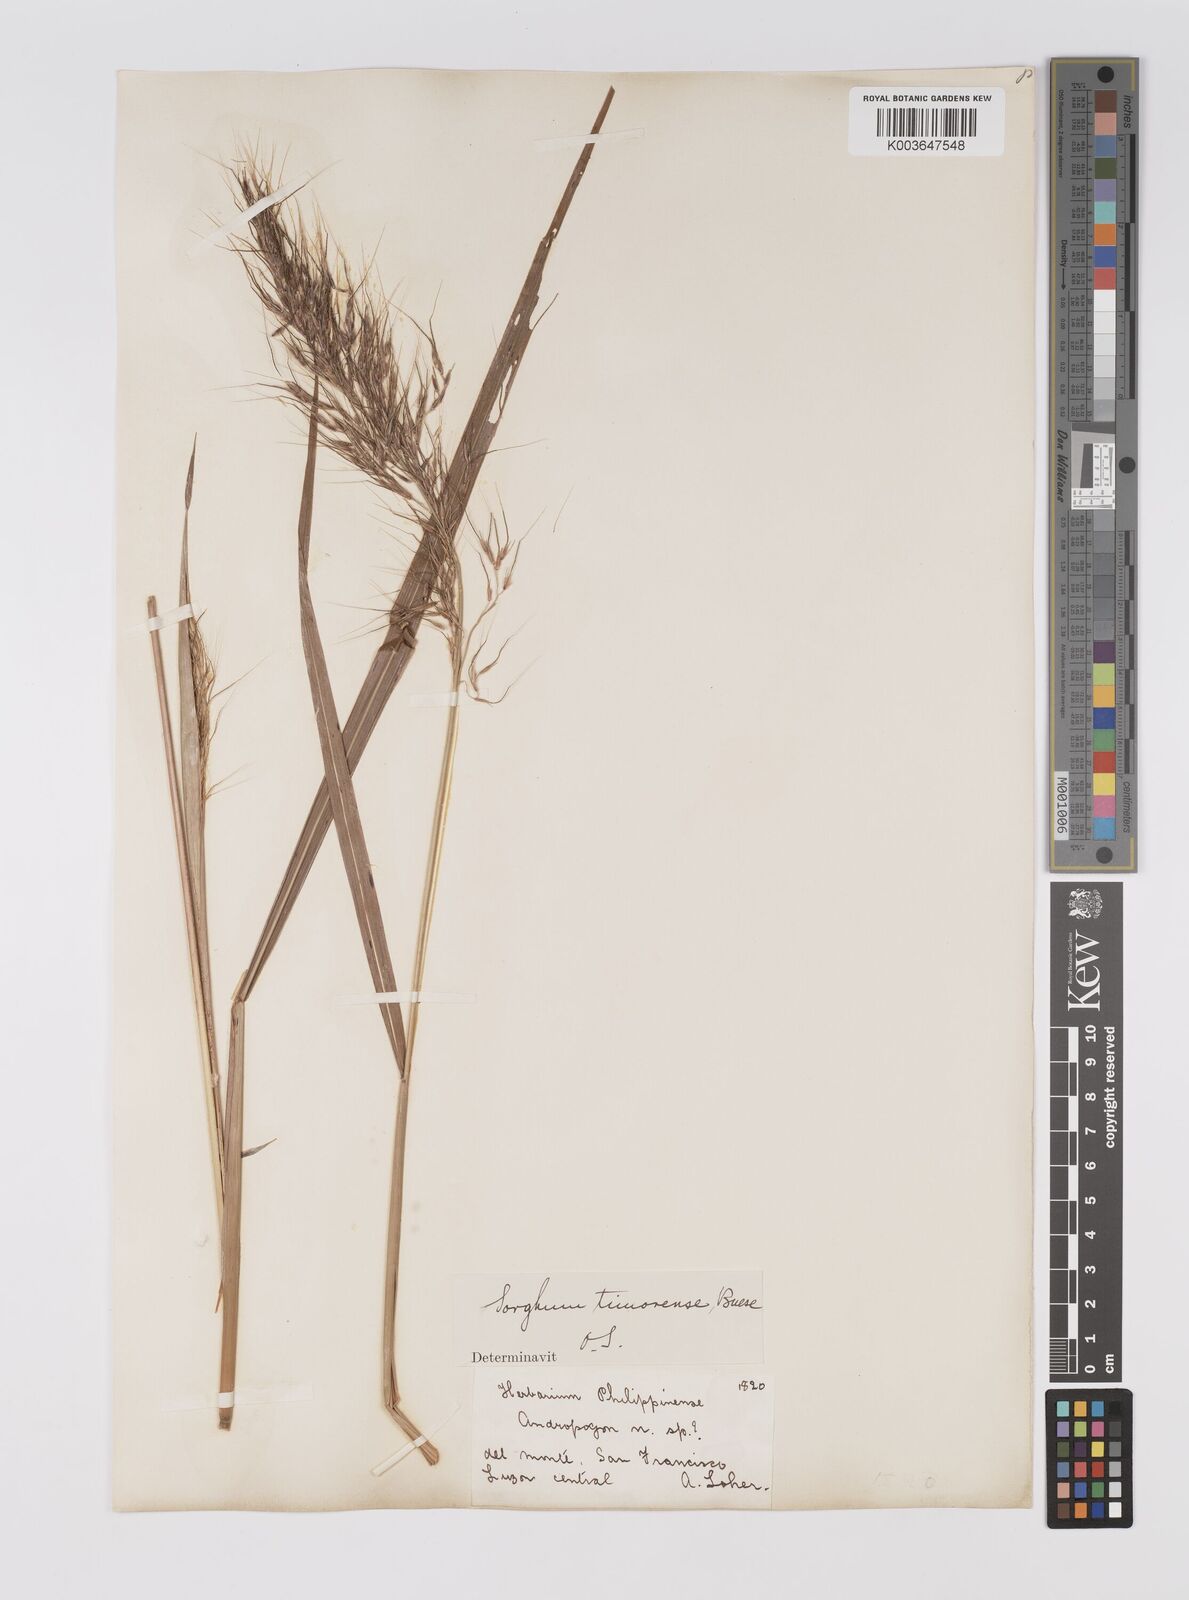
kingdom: Plantae
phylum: Tracheophyta
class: Liliopsida
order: Poales
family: Poaceae
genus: Sorghum
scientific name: Sorghum laxiflorum
